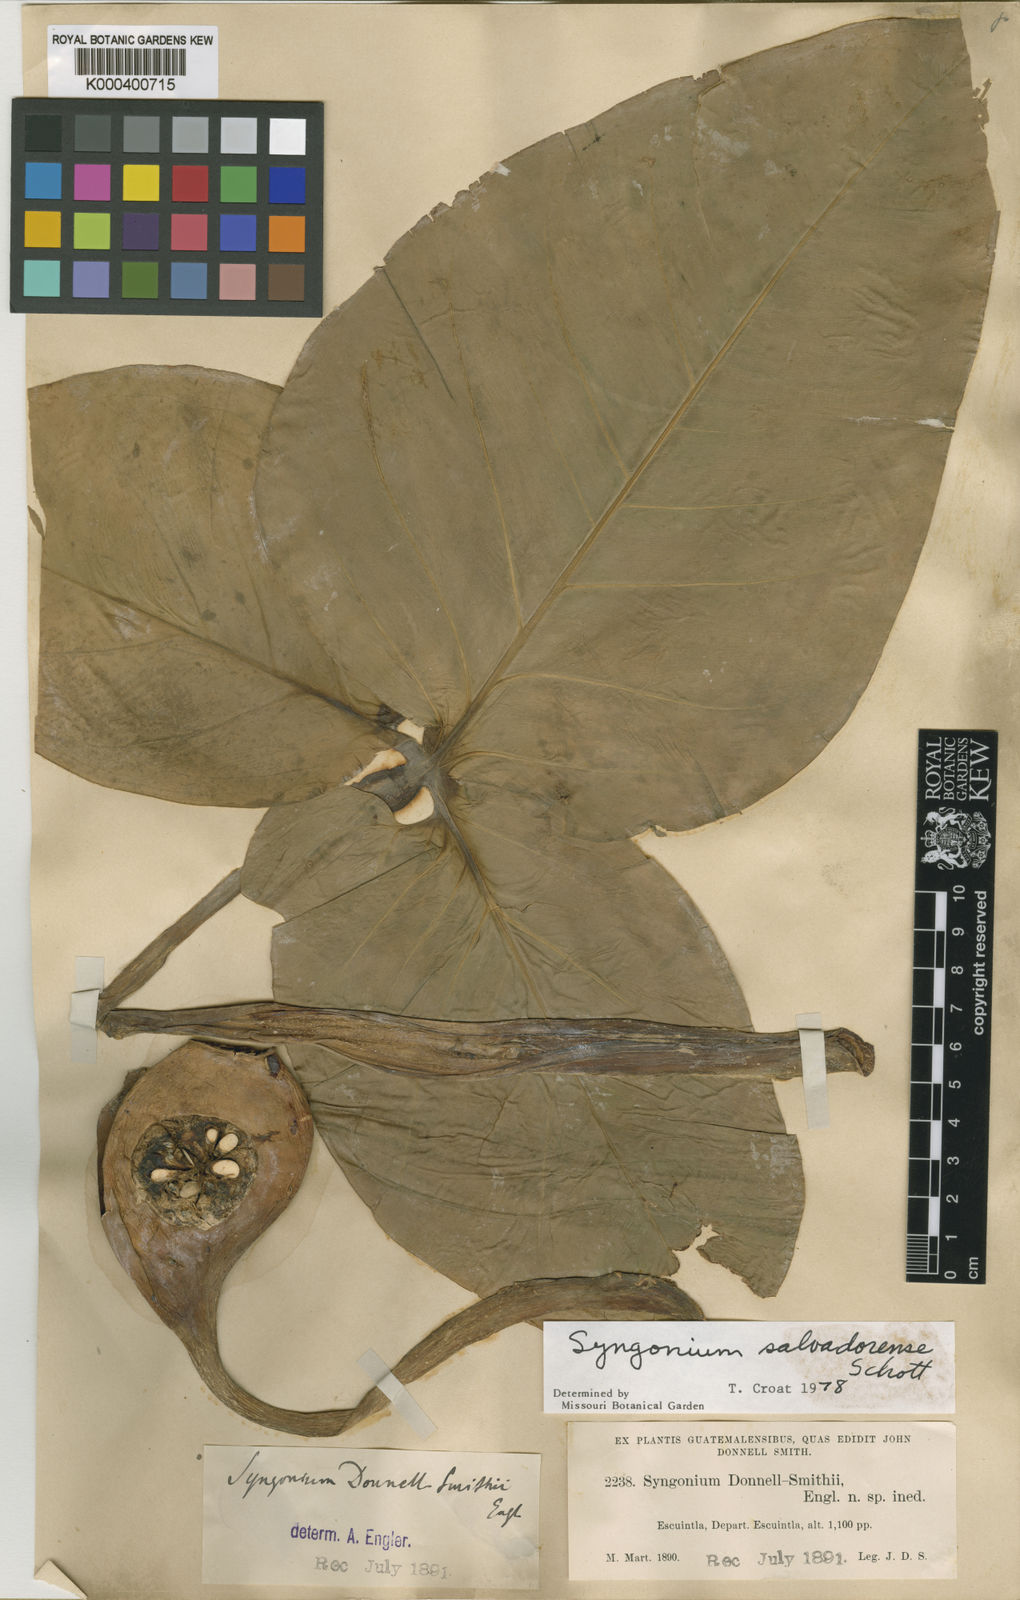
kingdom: Plantae
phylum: Tracheophyta
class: Liliopsida
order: Alismatales
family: Araceae
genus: Syngonium
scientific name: Syngonium salvadorense
